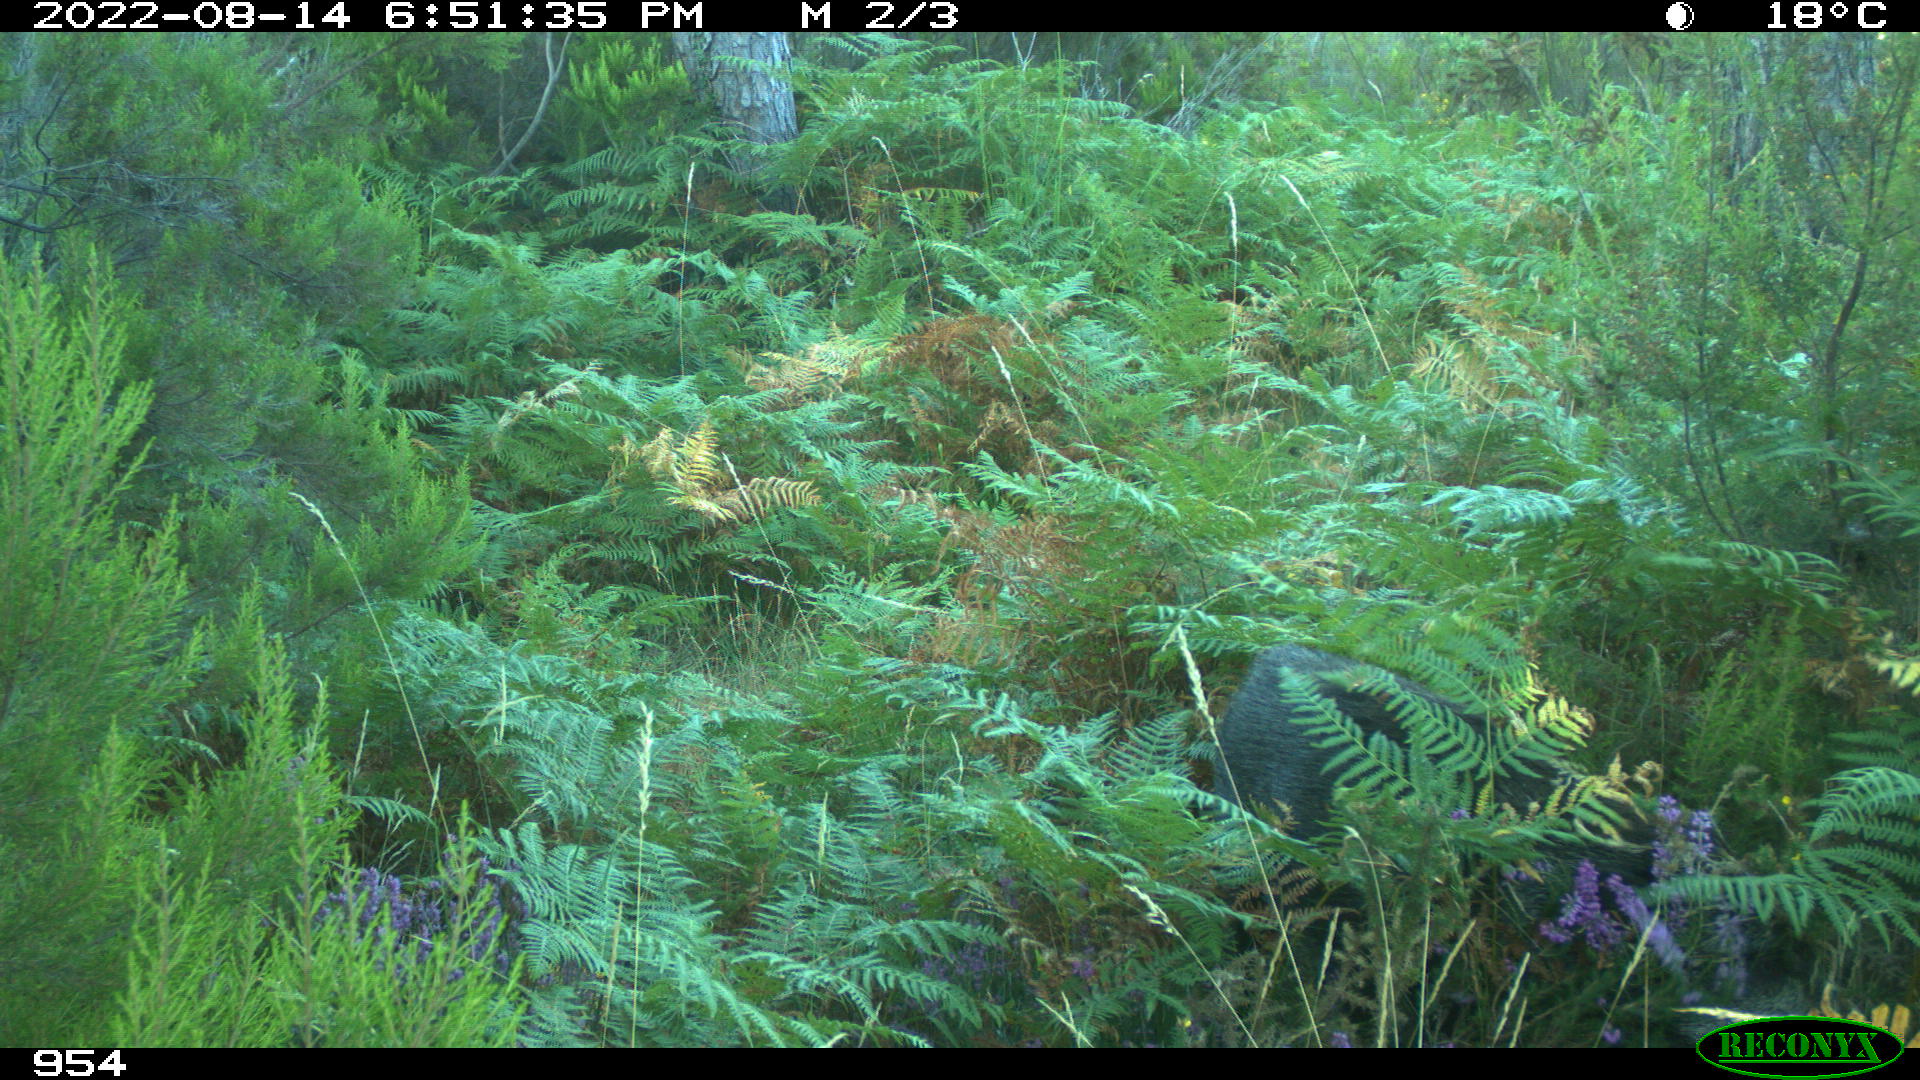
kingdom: Animalia
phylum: Chordata
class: Mammalia
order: Artiodactyla
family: Suidae
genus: Sus
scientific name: Sus scrofa
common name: Wild boar
